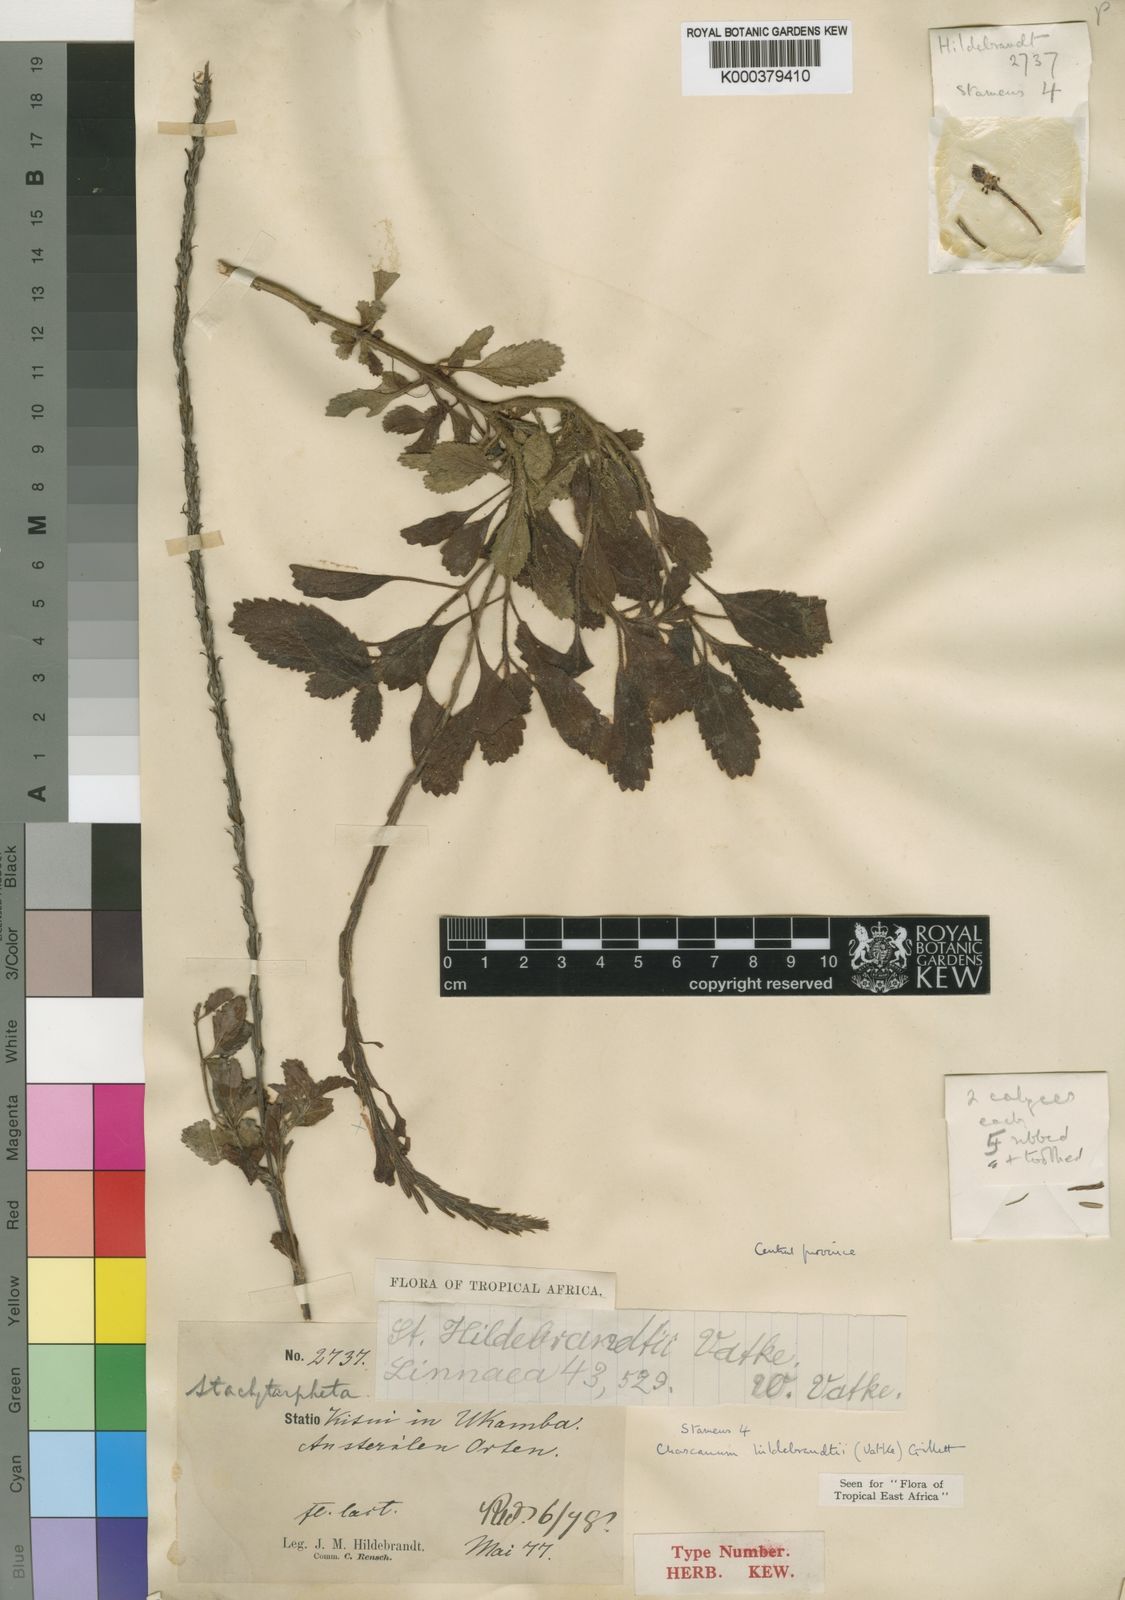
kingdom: Plantae
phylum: Tracheophyta
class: Magnoliopsida
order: Lamiales
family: Verbenaceae
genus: Chascanum
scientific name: Chascanum hildebrandtii
